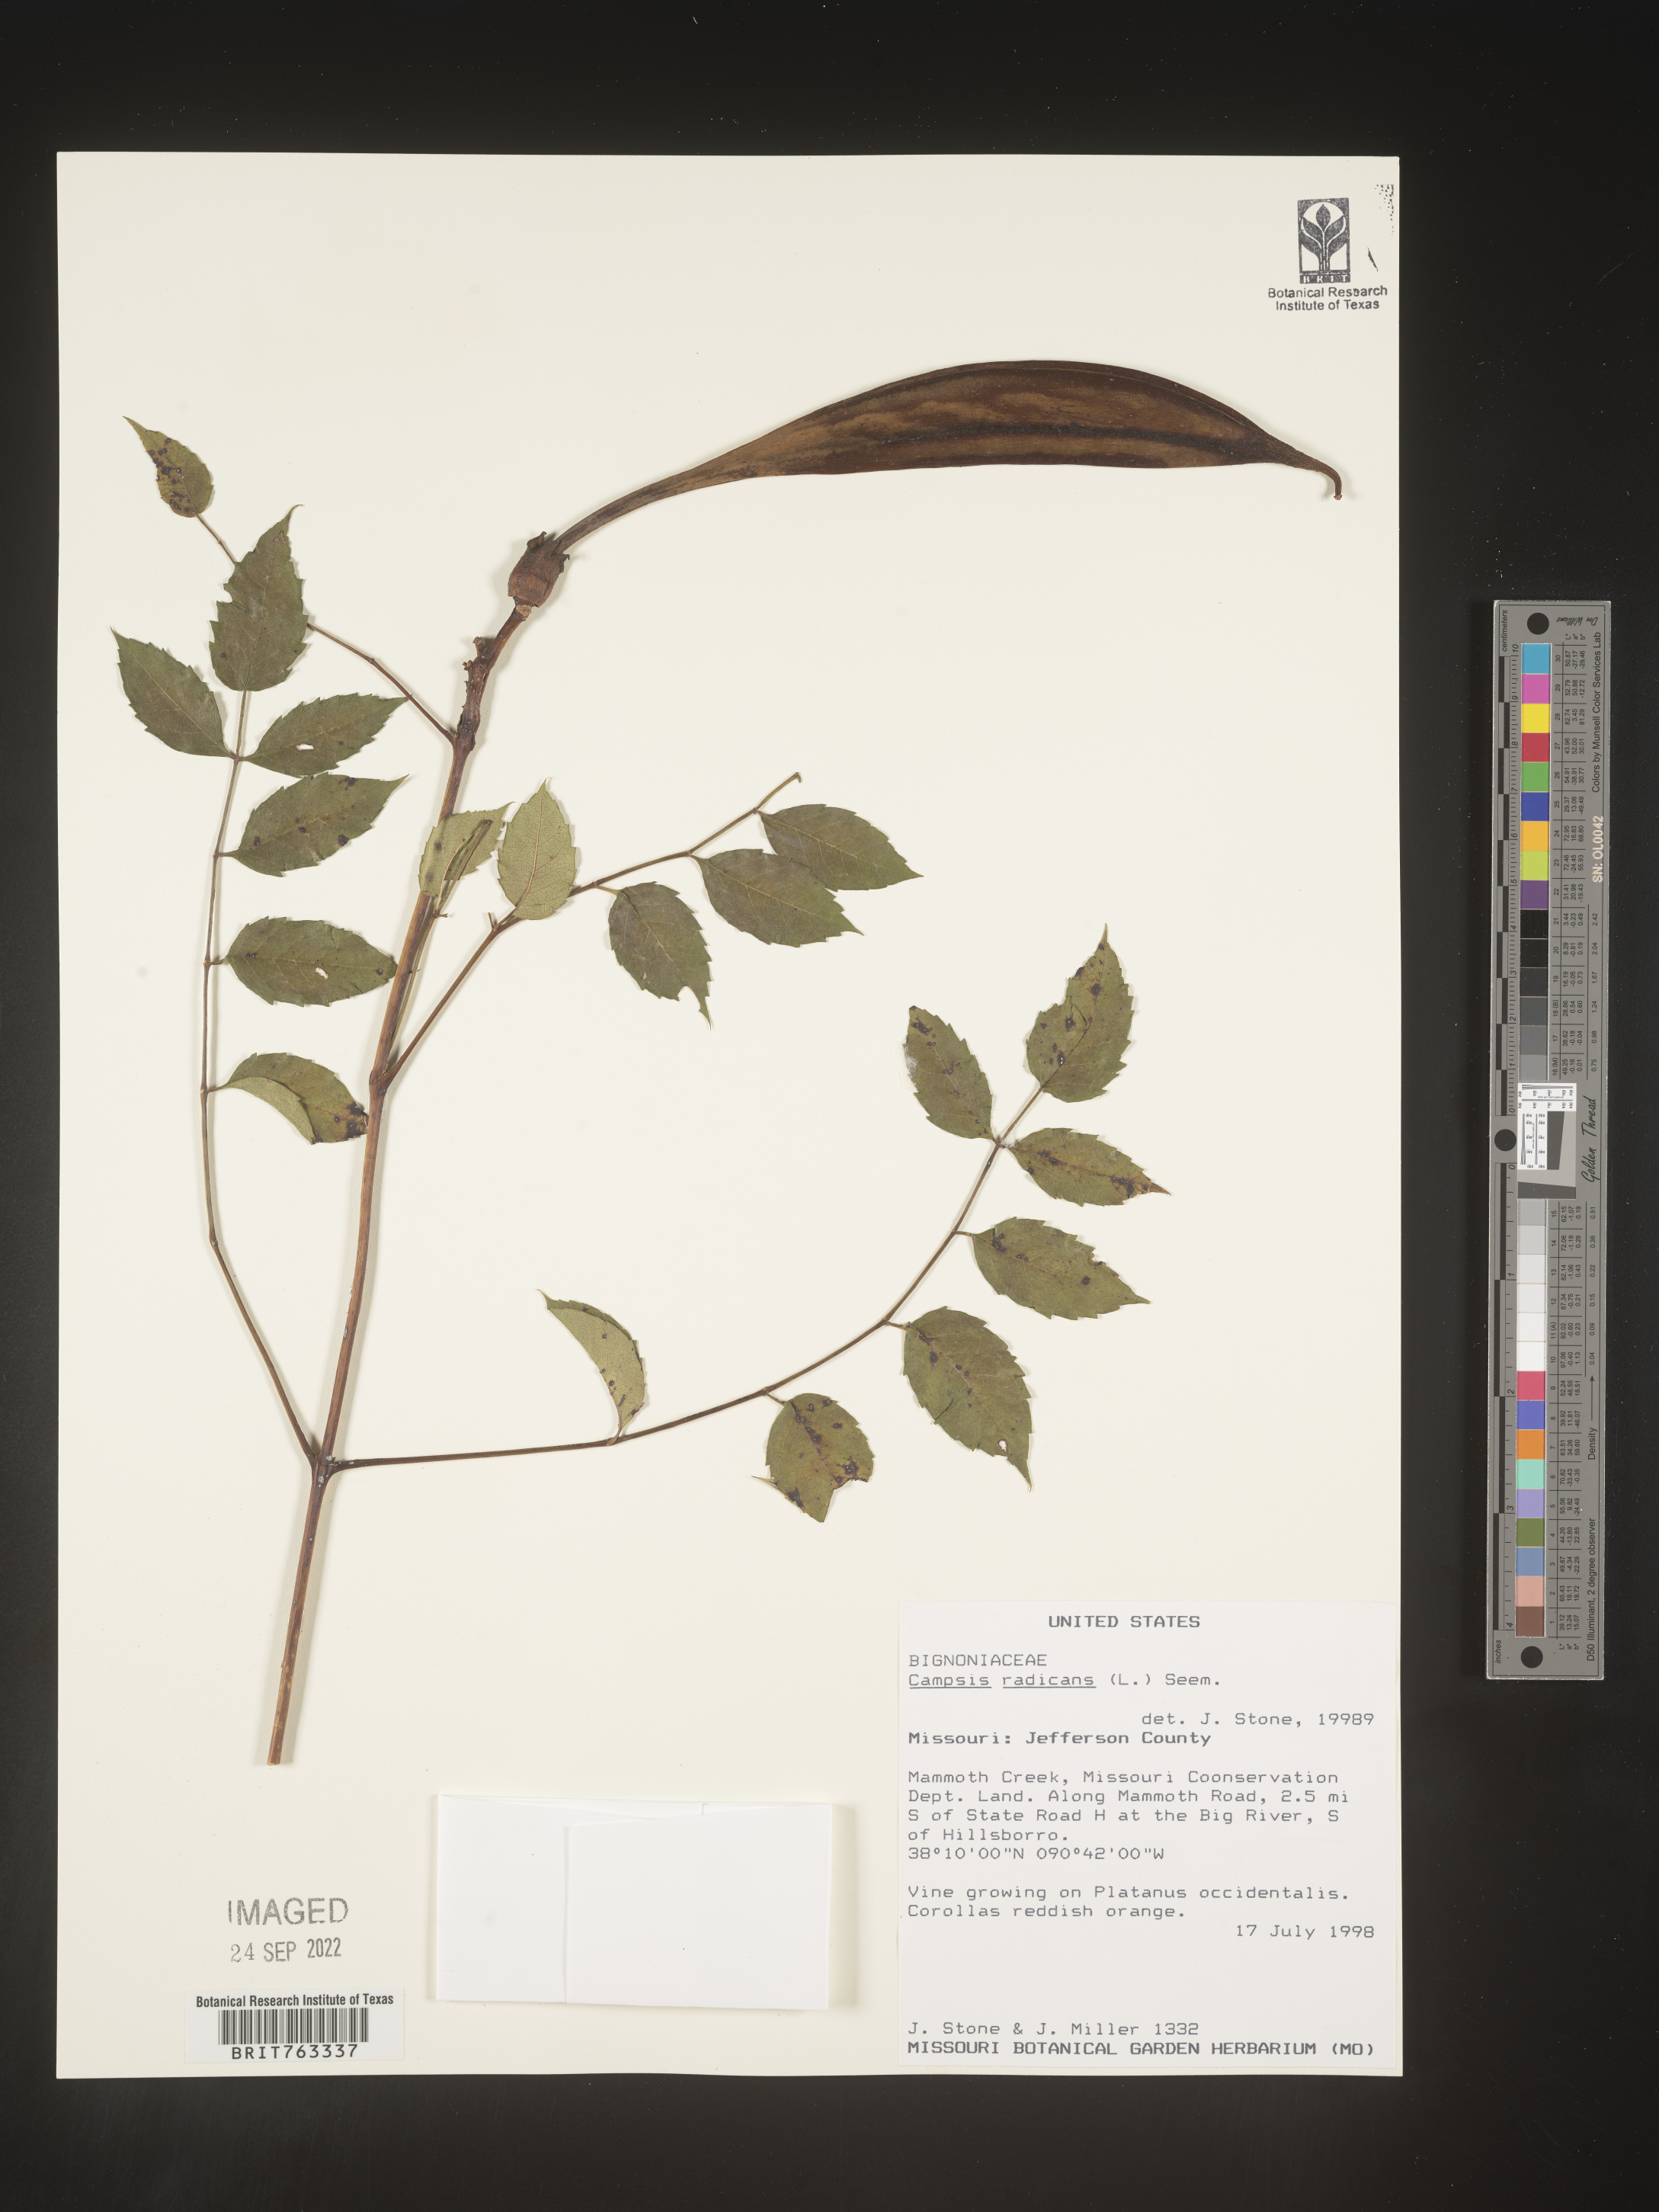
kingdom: Plantae
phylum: Tracheophyta
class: Magnoliopsida
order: Lamiales
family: Bignoniaceae
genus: Campsis
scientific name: Campsis radicans
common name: Trumpet-creeper
